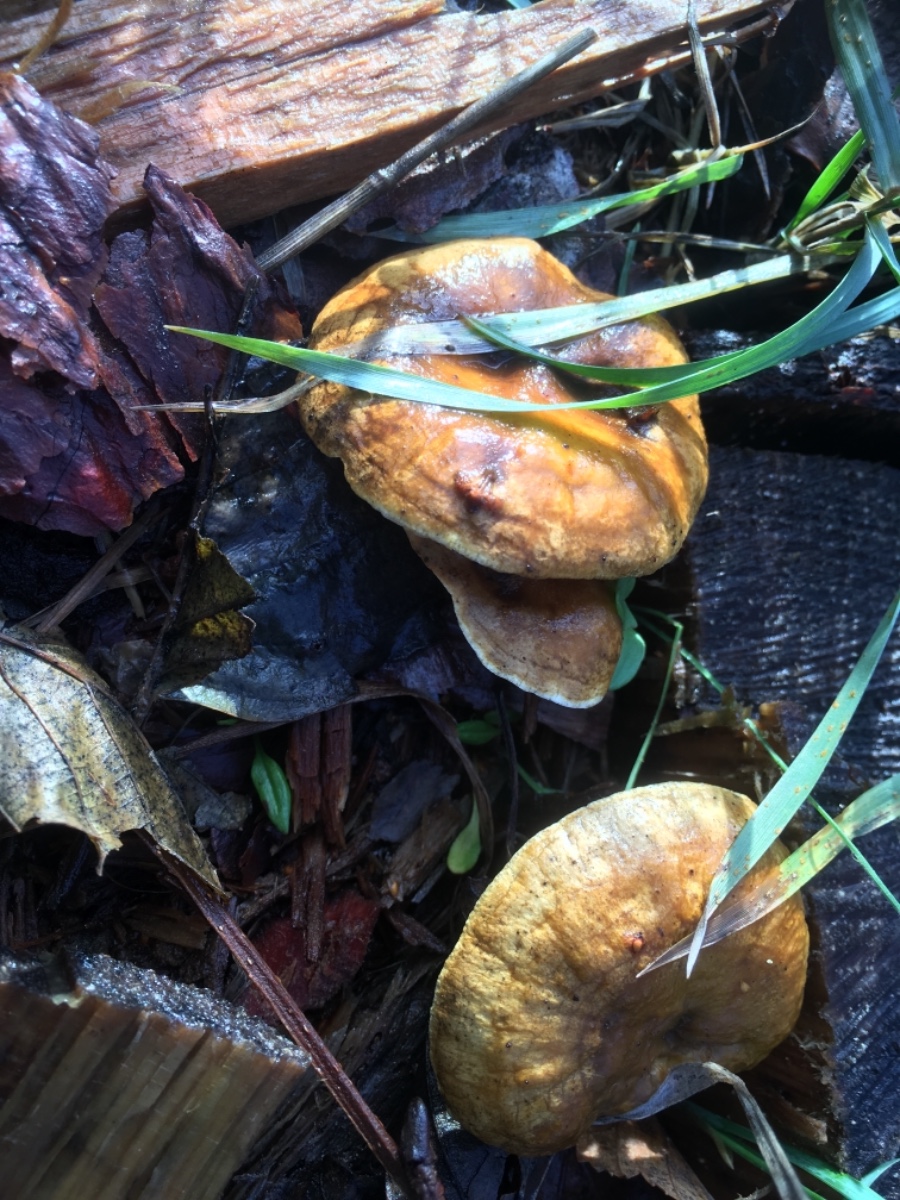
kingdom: Fungi
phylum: Basidiomycota
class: Agaricomycetes
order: Boletales
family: Hygrophoropsidaceae
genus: Hygrophoropsis
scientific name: Hygrophoropsis aurantiaca
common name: almindelig orangekantarel
